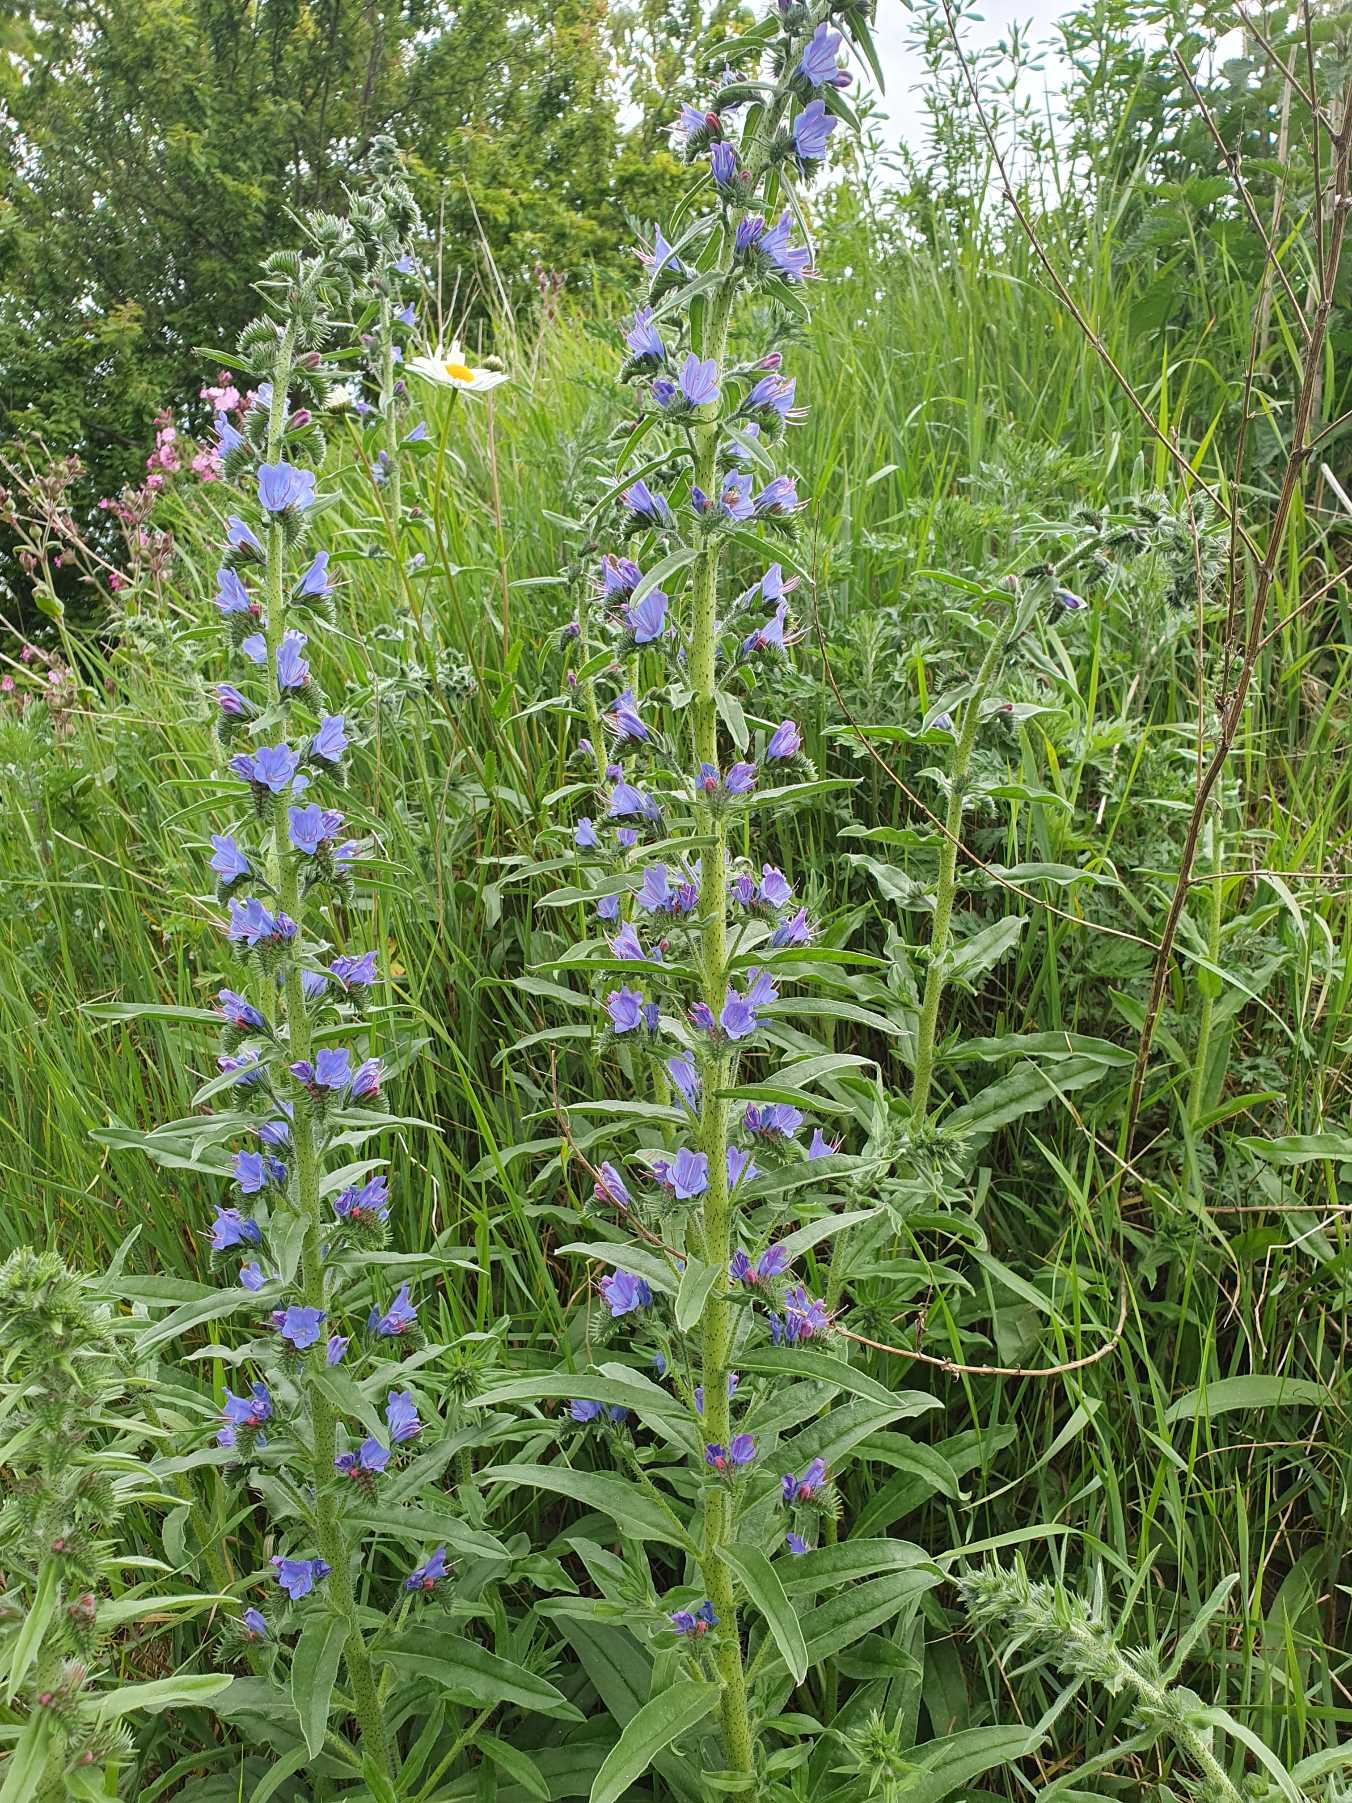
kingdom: Plantae
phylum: Tracheophyta
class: Magnoliopsida
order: Boraginales
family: Boraginaceae
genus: Echium
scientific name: Echium vulgare
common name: Slangehoved
